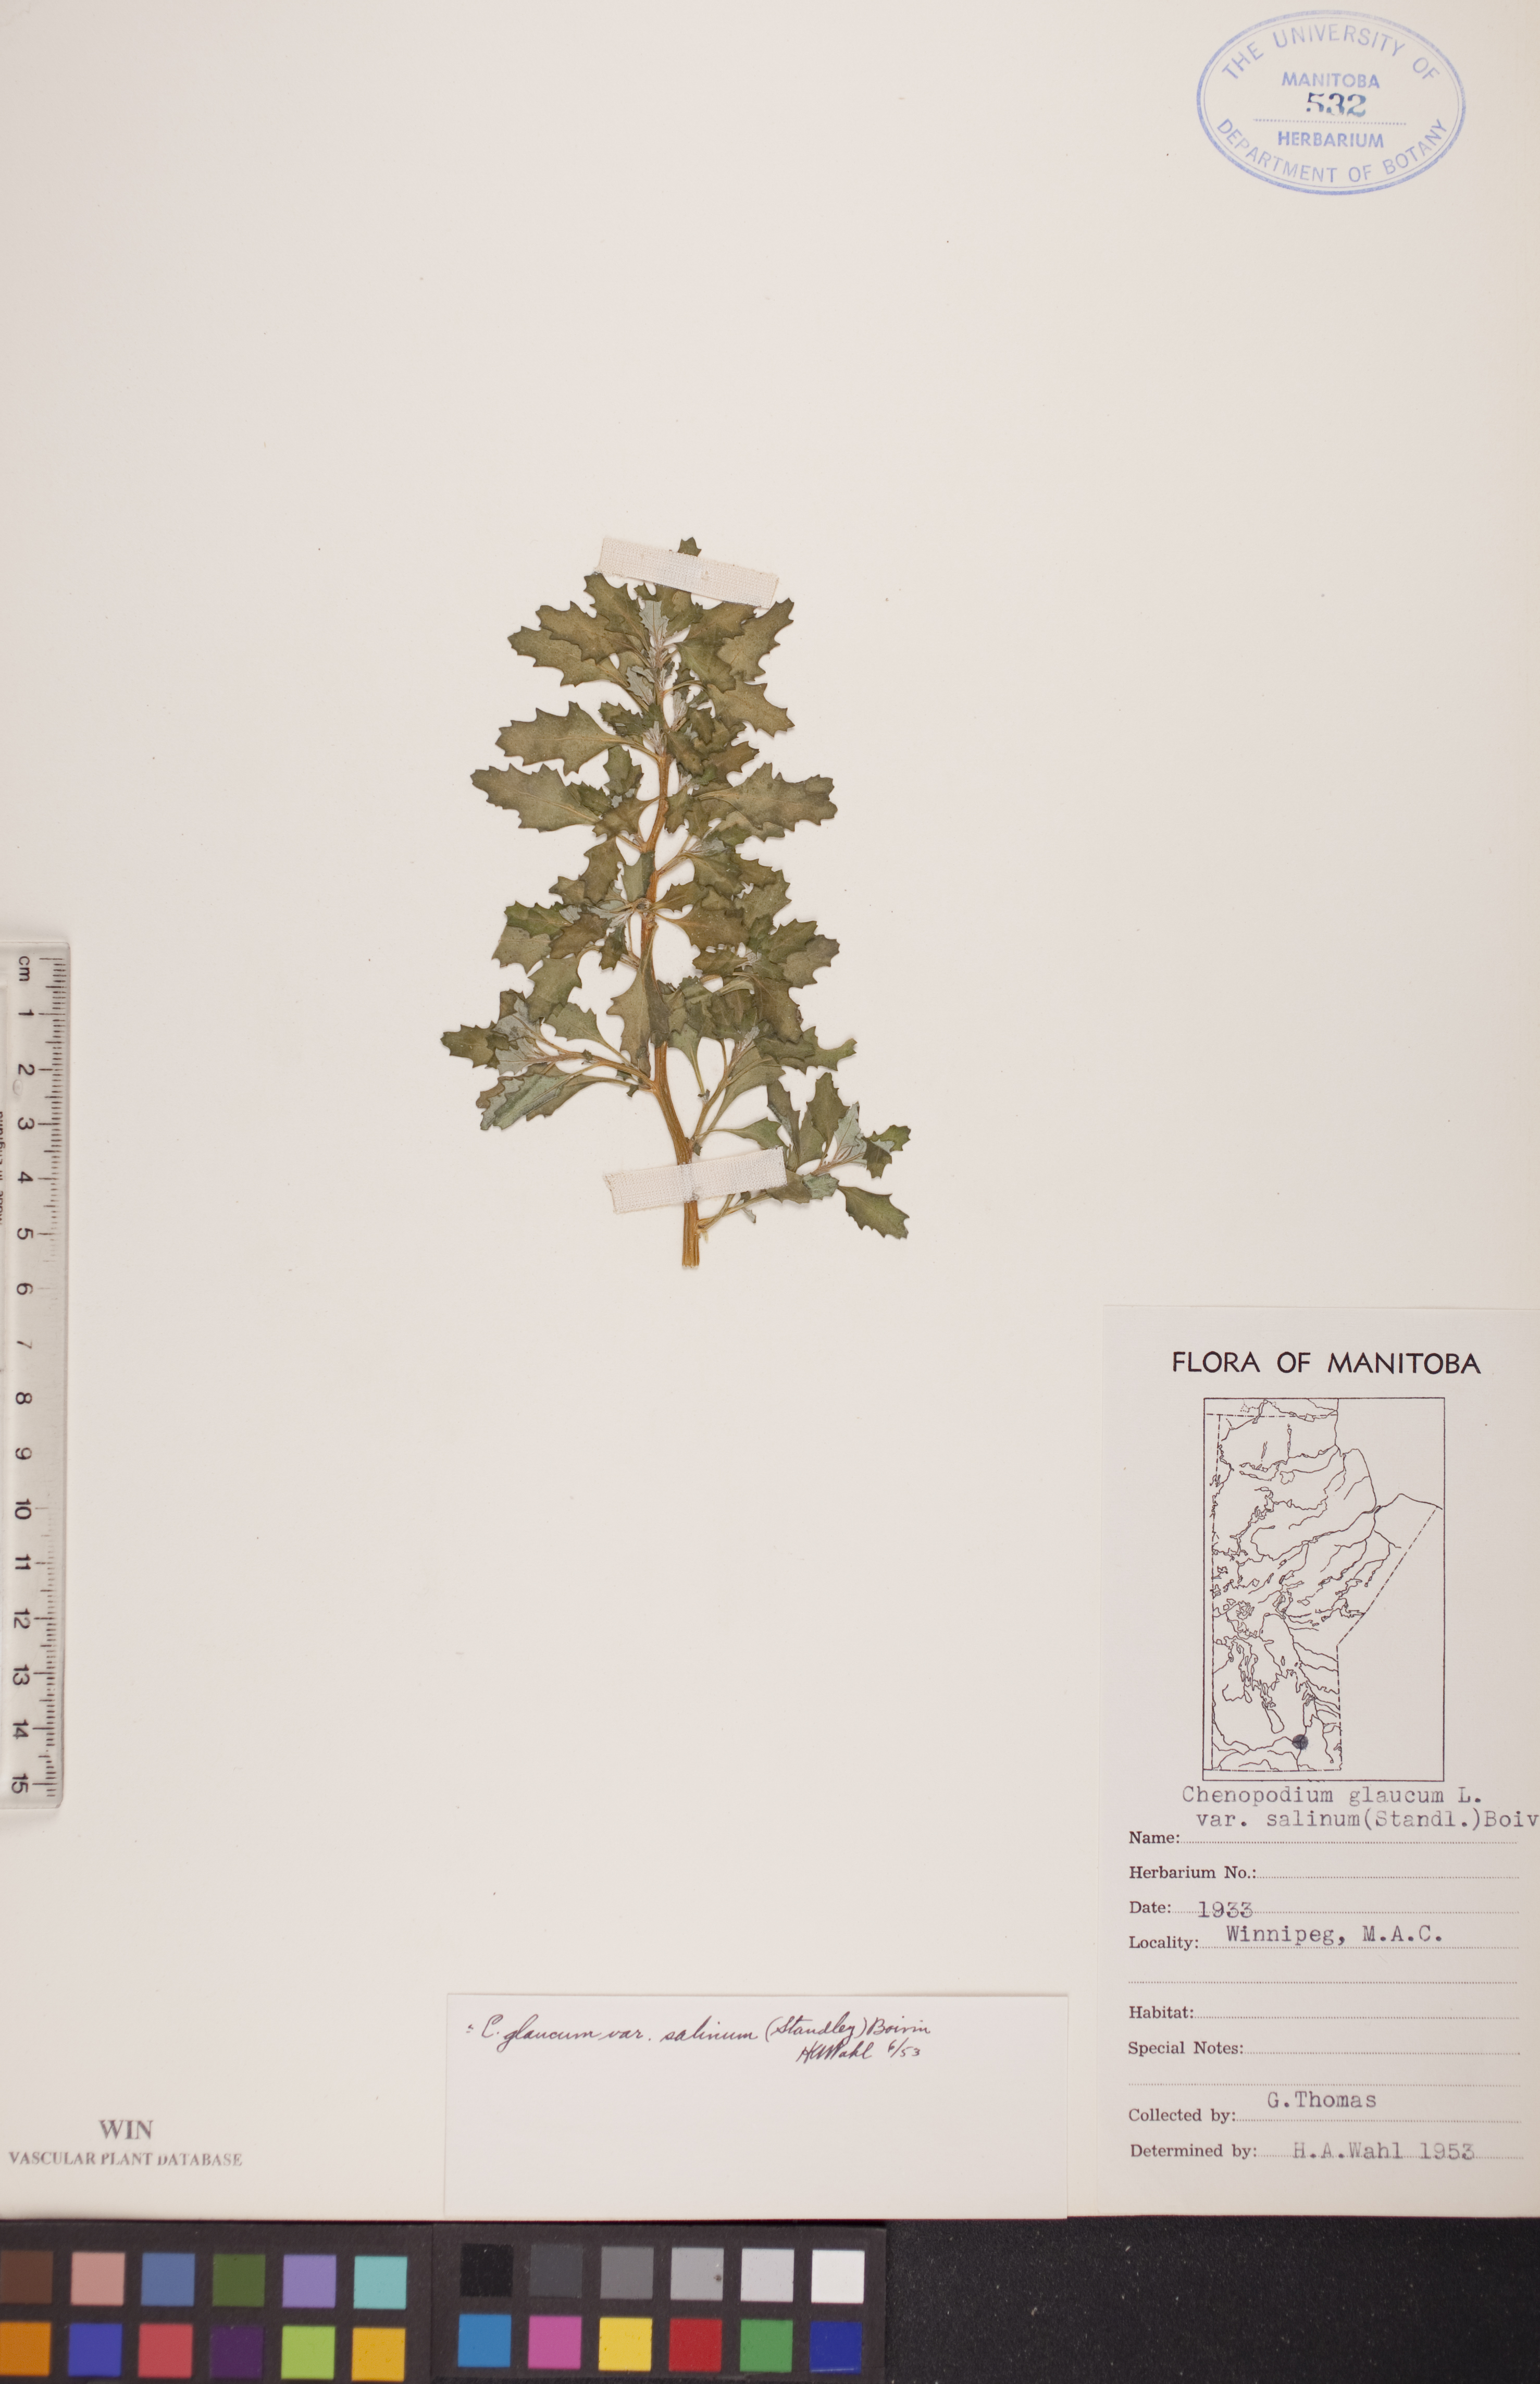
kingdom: Plantae
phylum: Tracheophyta
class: Magnoliopsida
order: Caryophyllales
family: Amaranthaceae
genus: Oxybasis
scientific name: Oxybasis salina
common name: Rocky mountain goosefoot
